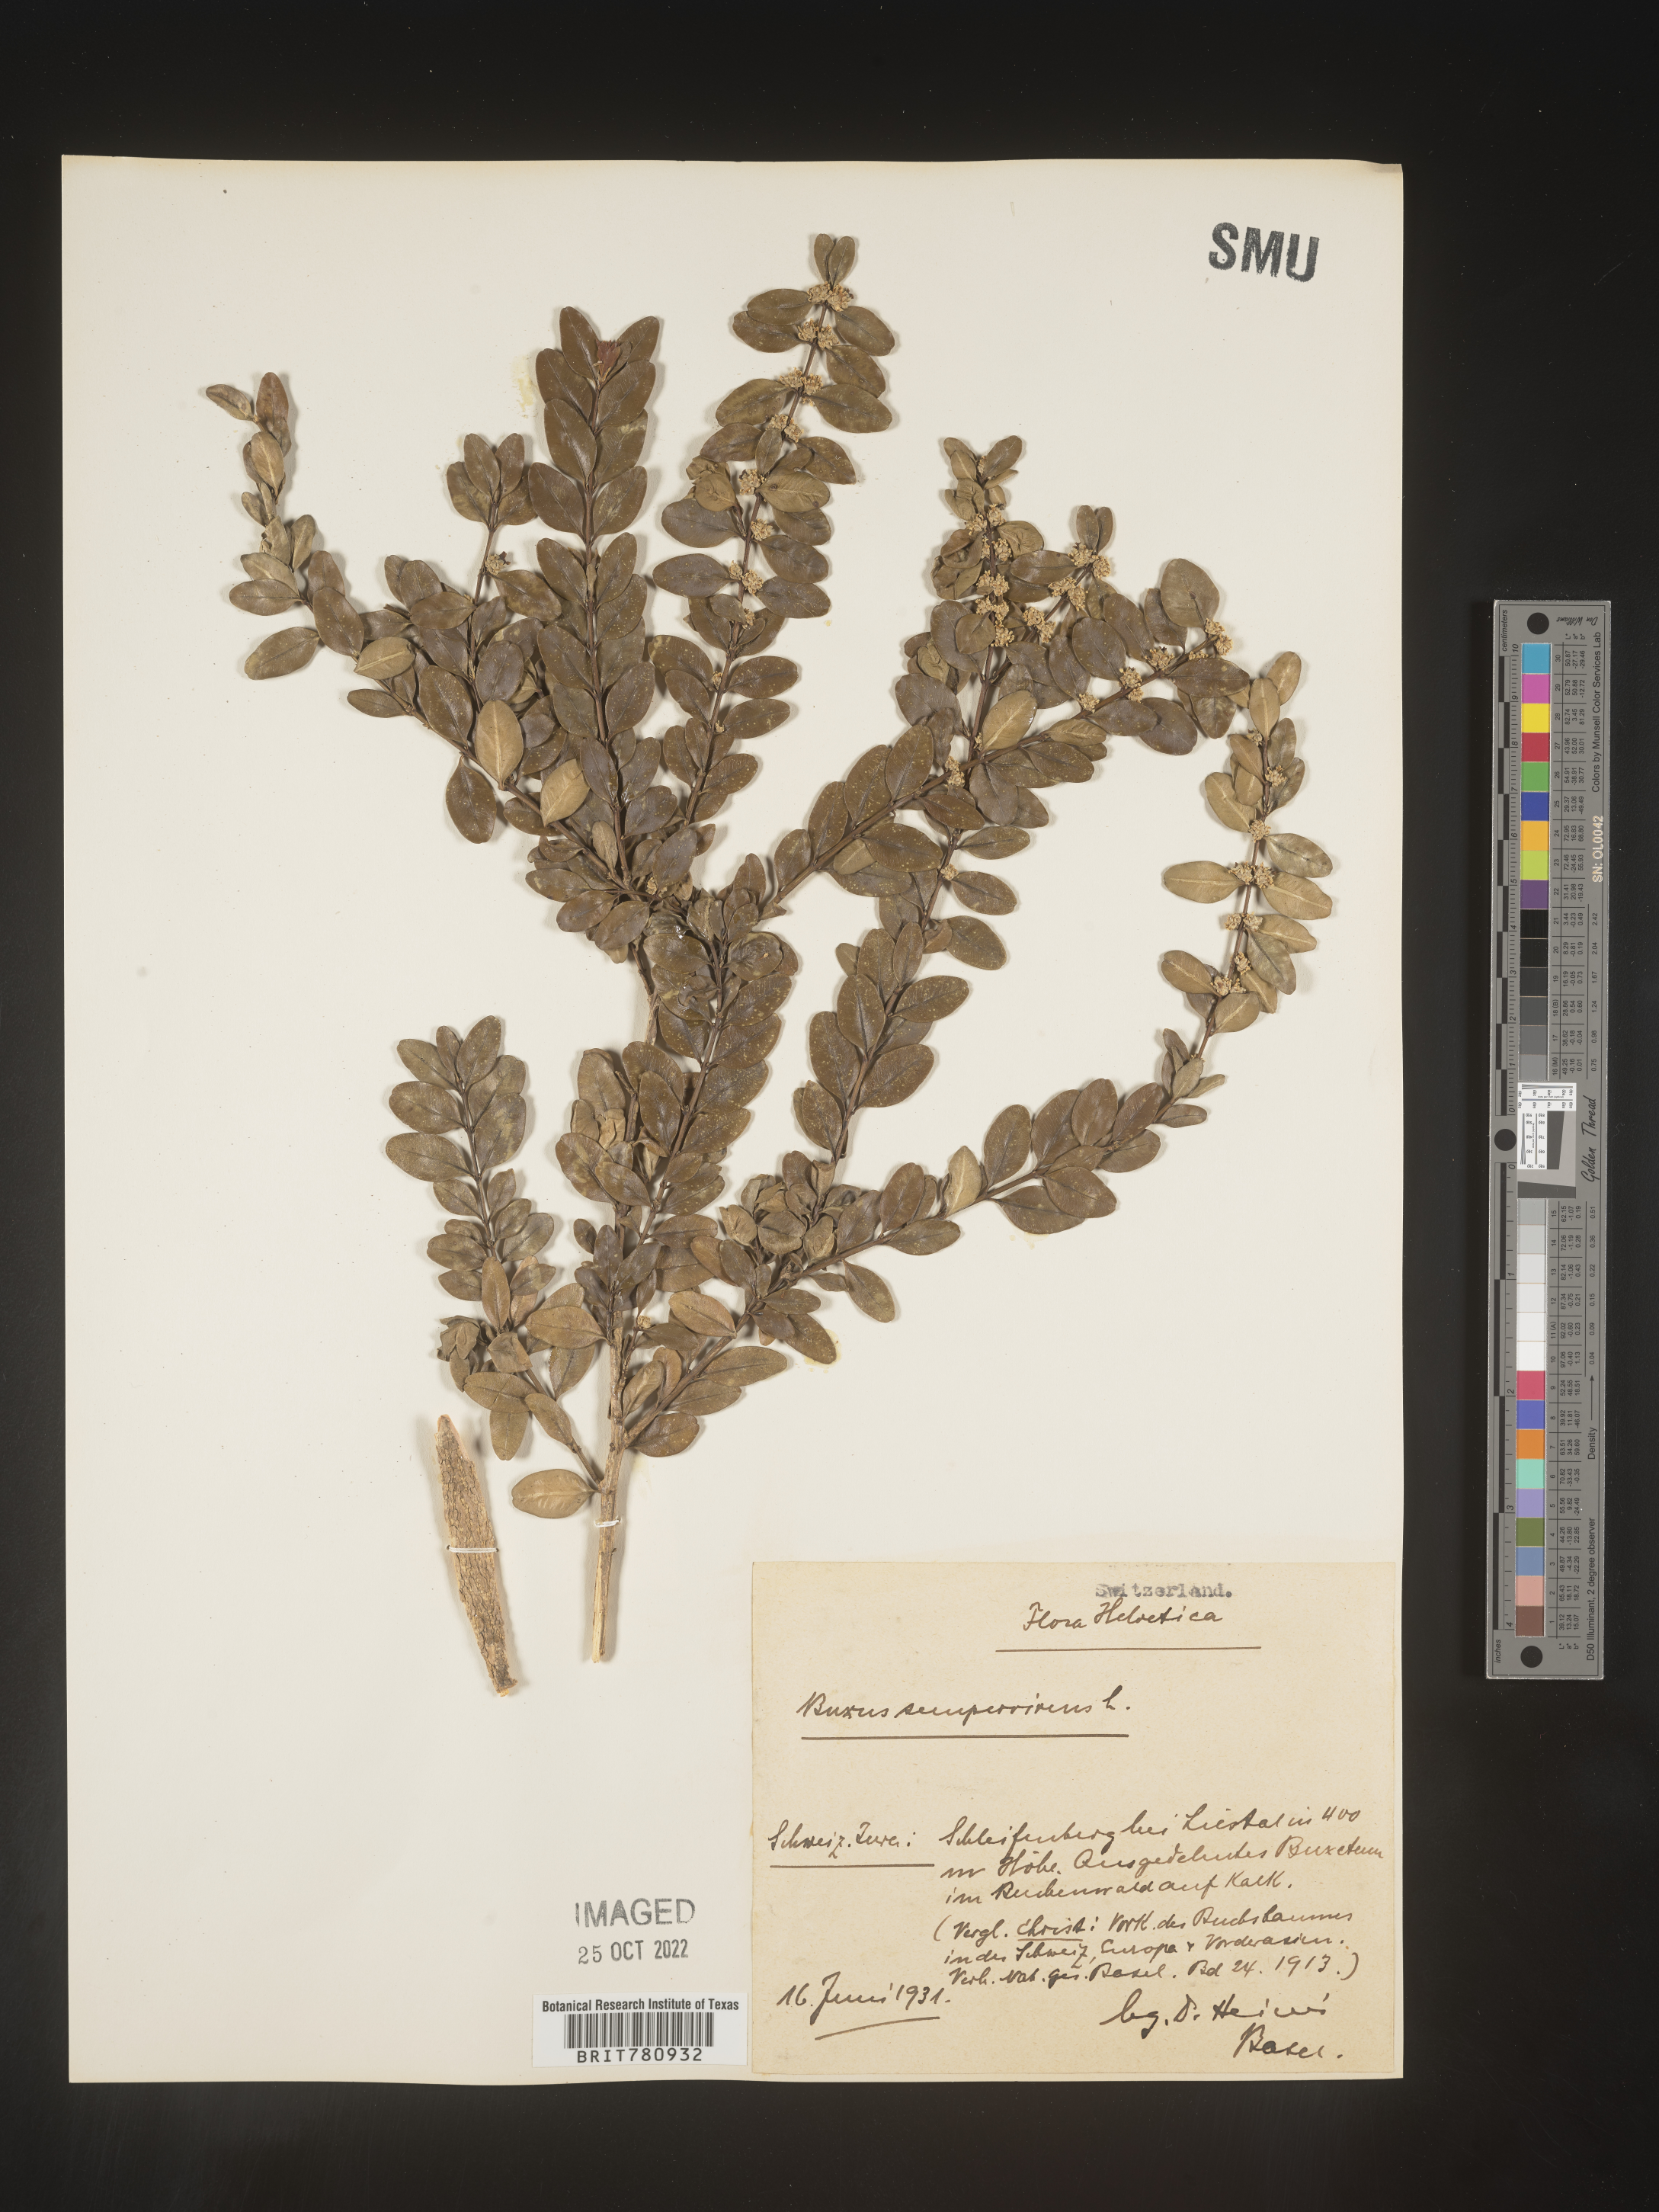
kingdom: Plantae
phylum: Tracheophyta
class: Magnoliopsida
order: Buxales
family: Buxaceae
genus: Buxus
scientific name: Buxus
